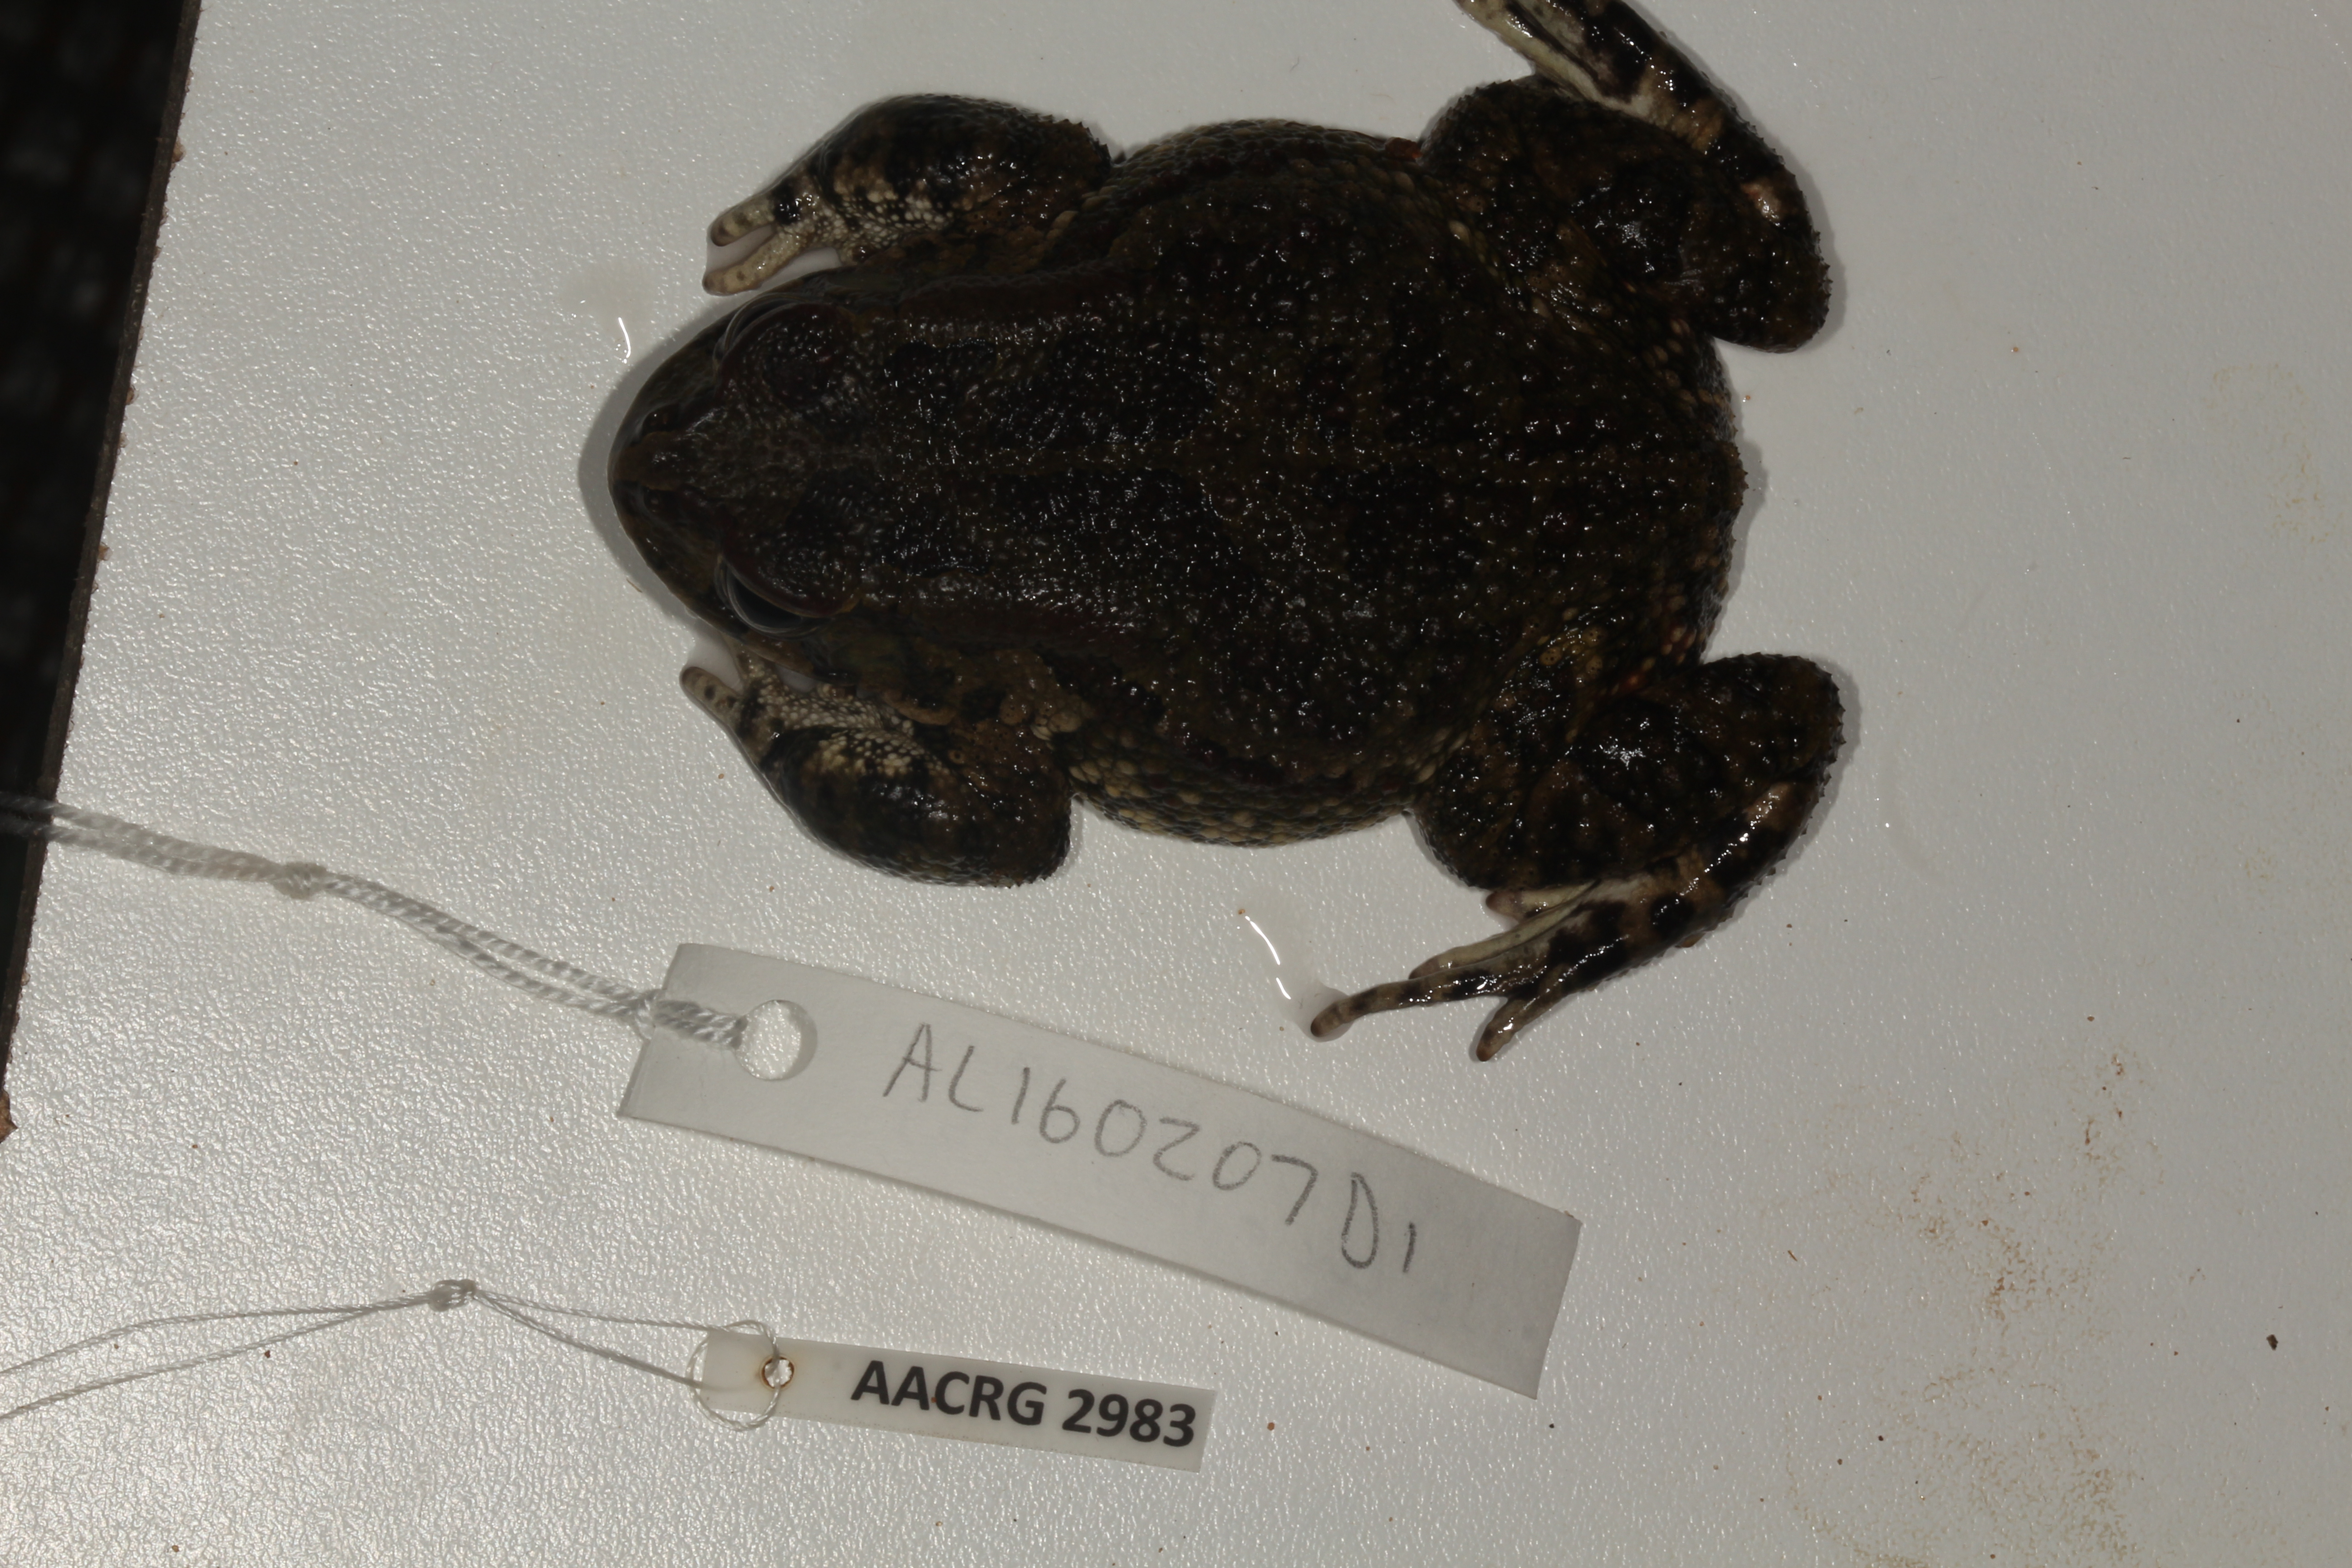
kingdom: Animalia
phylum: Chordata
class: Amphibia
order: Anura
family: Bufonidae
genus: Sclerophrys
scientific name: Sclerophrys garmani
